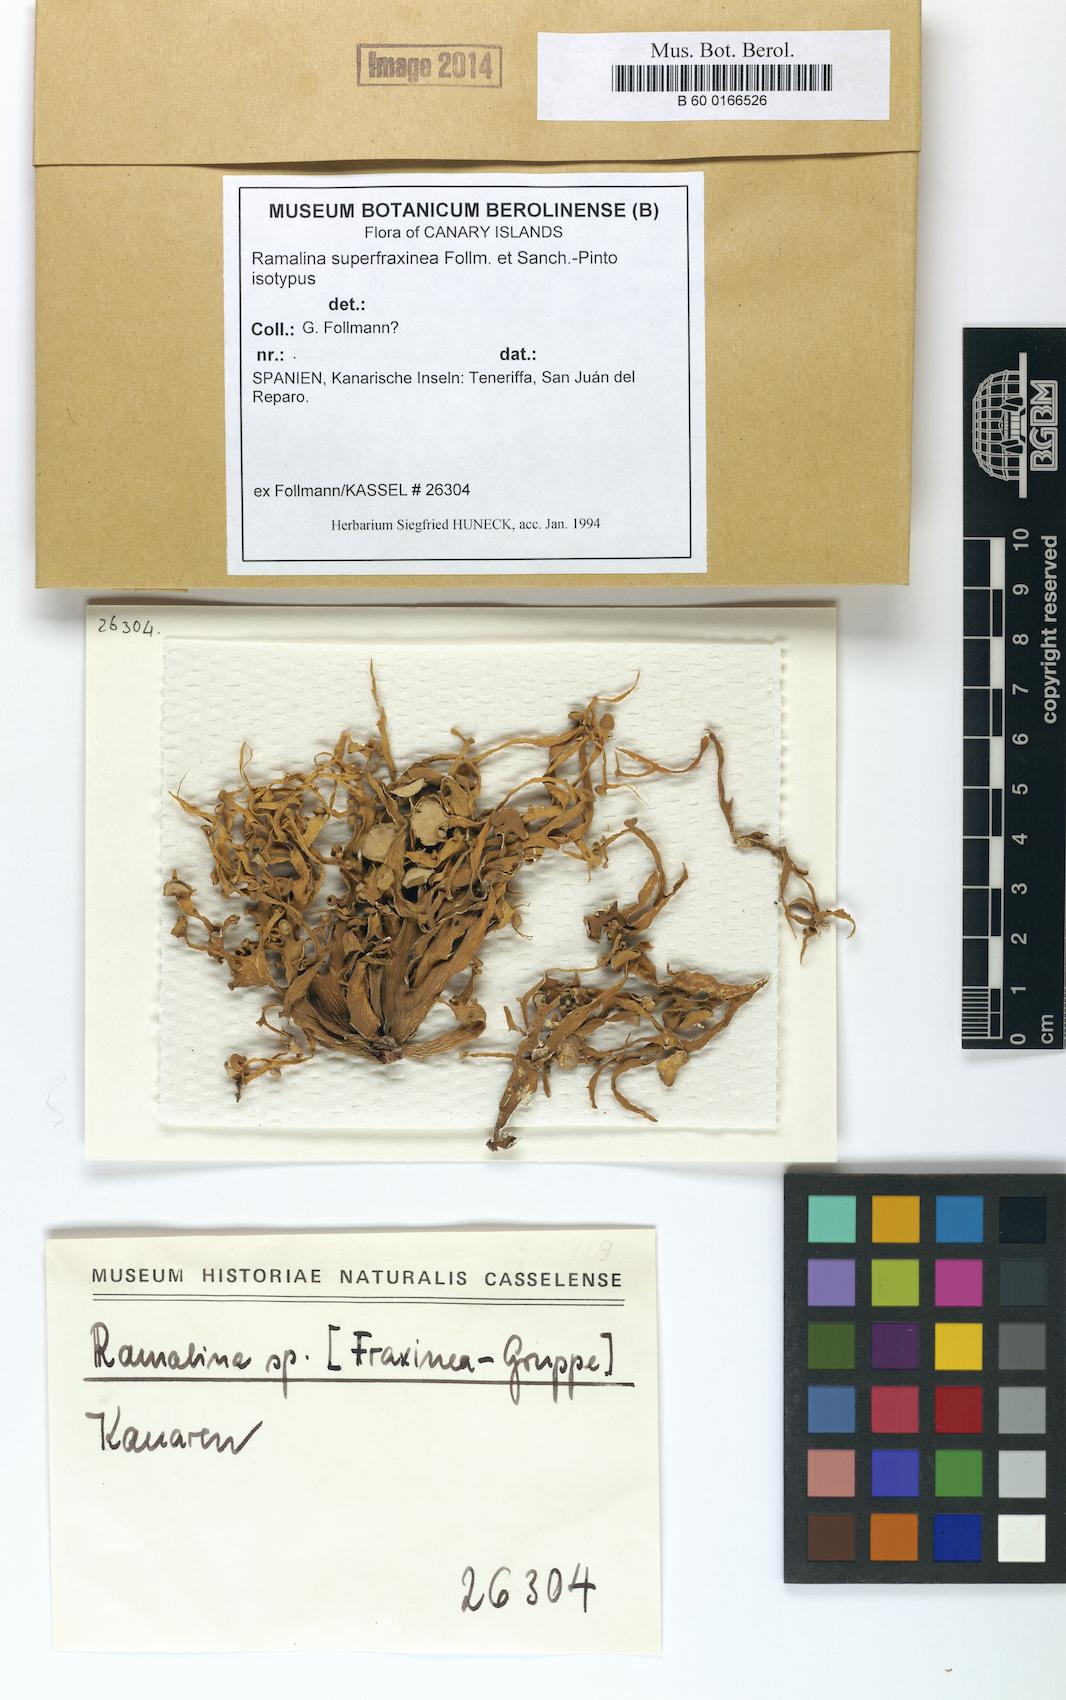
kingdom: Fungi
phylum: Ascomycota
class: Lecanoromycetes
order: Lecanorales
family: Ramalinaceae
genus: Ramalina
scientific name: Ramalina superfraxinea
